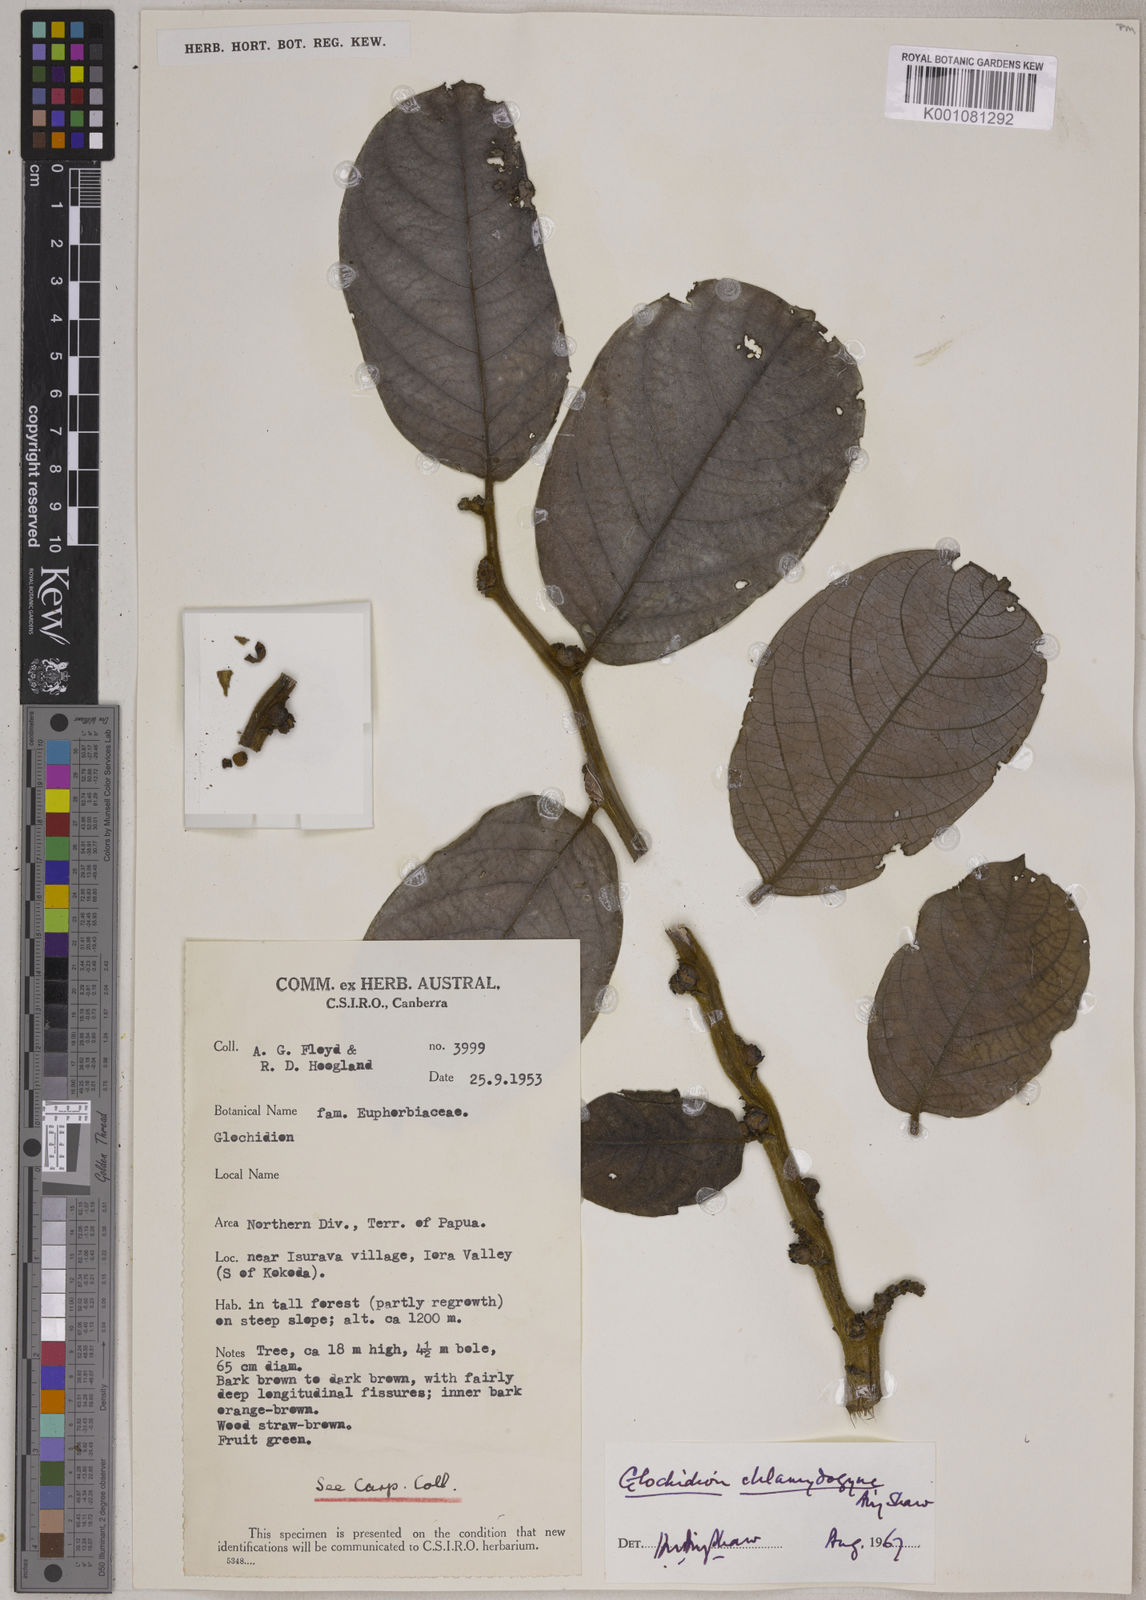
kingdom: Plantae
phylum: Tracheophyta
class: Magnoliopsida
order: Malpighiales
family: Phyllanthaceae
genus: Glochidion
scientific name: Glochidion chlamydogyne
